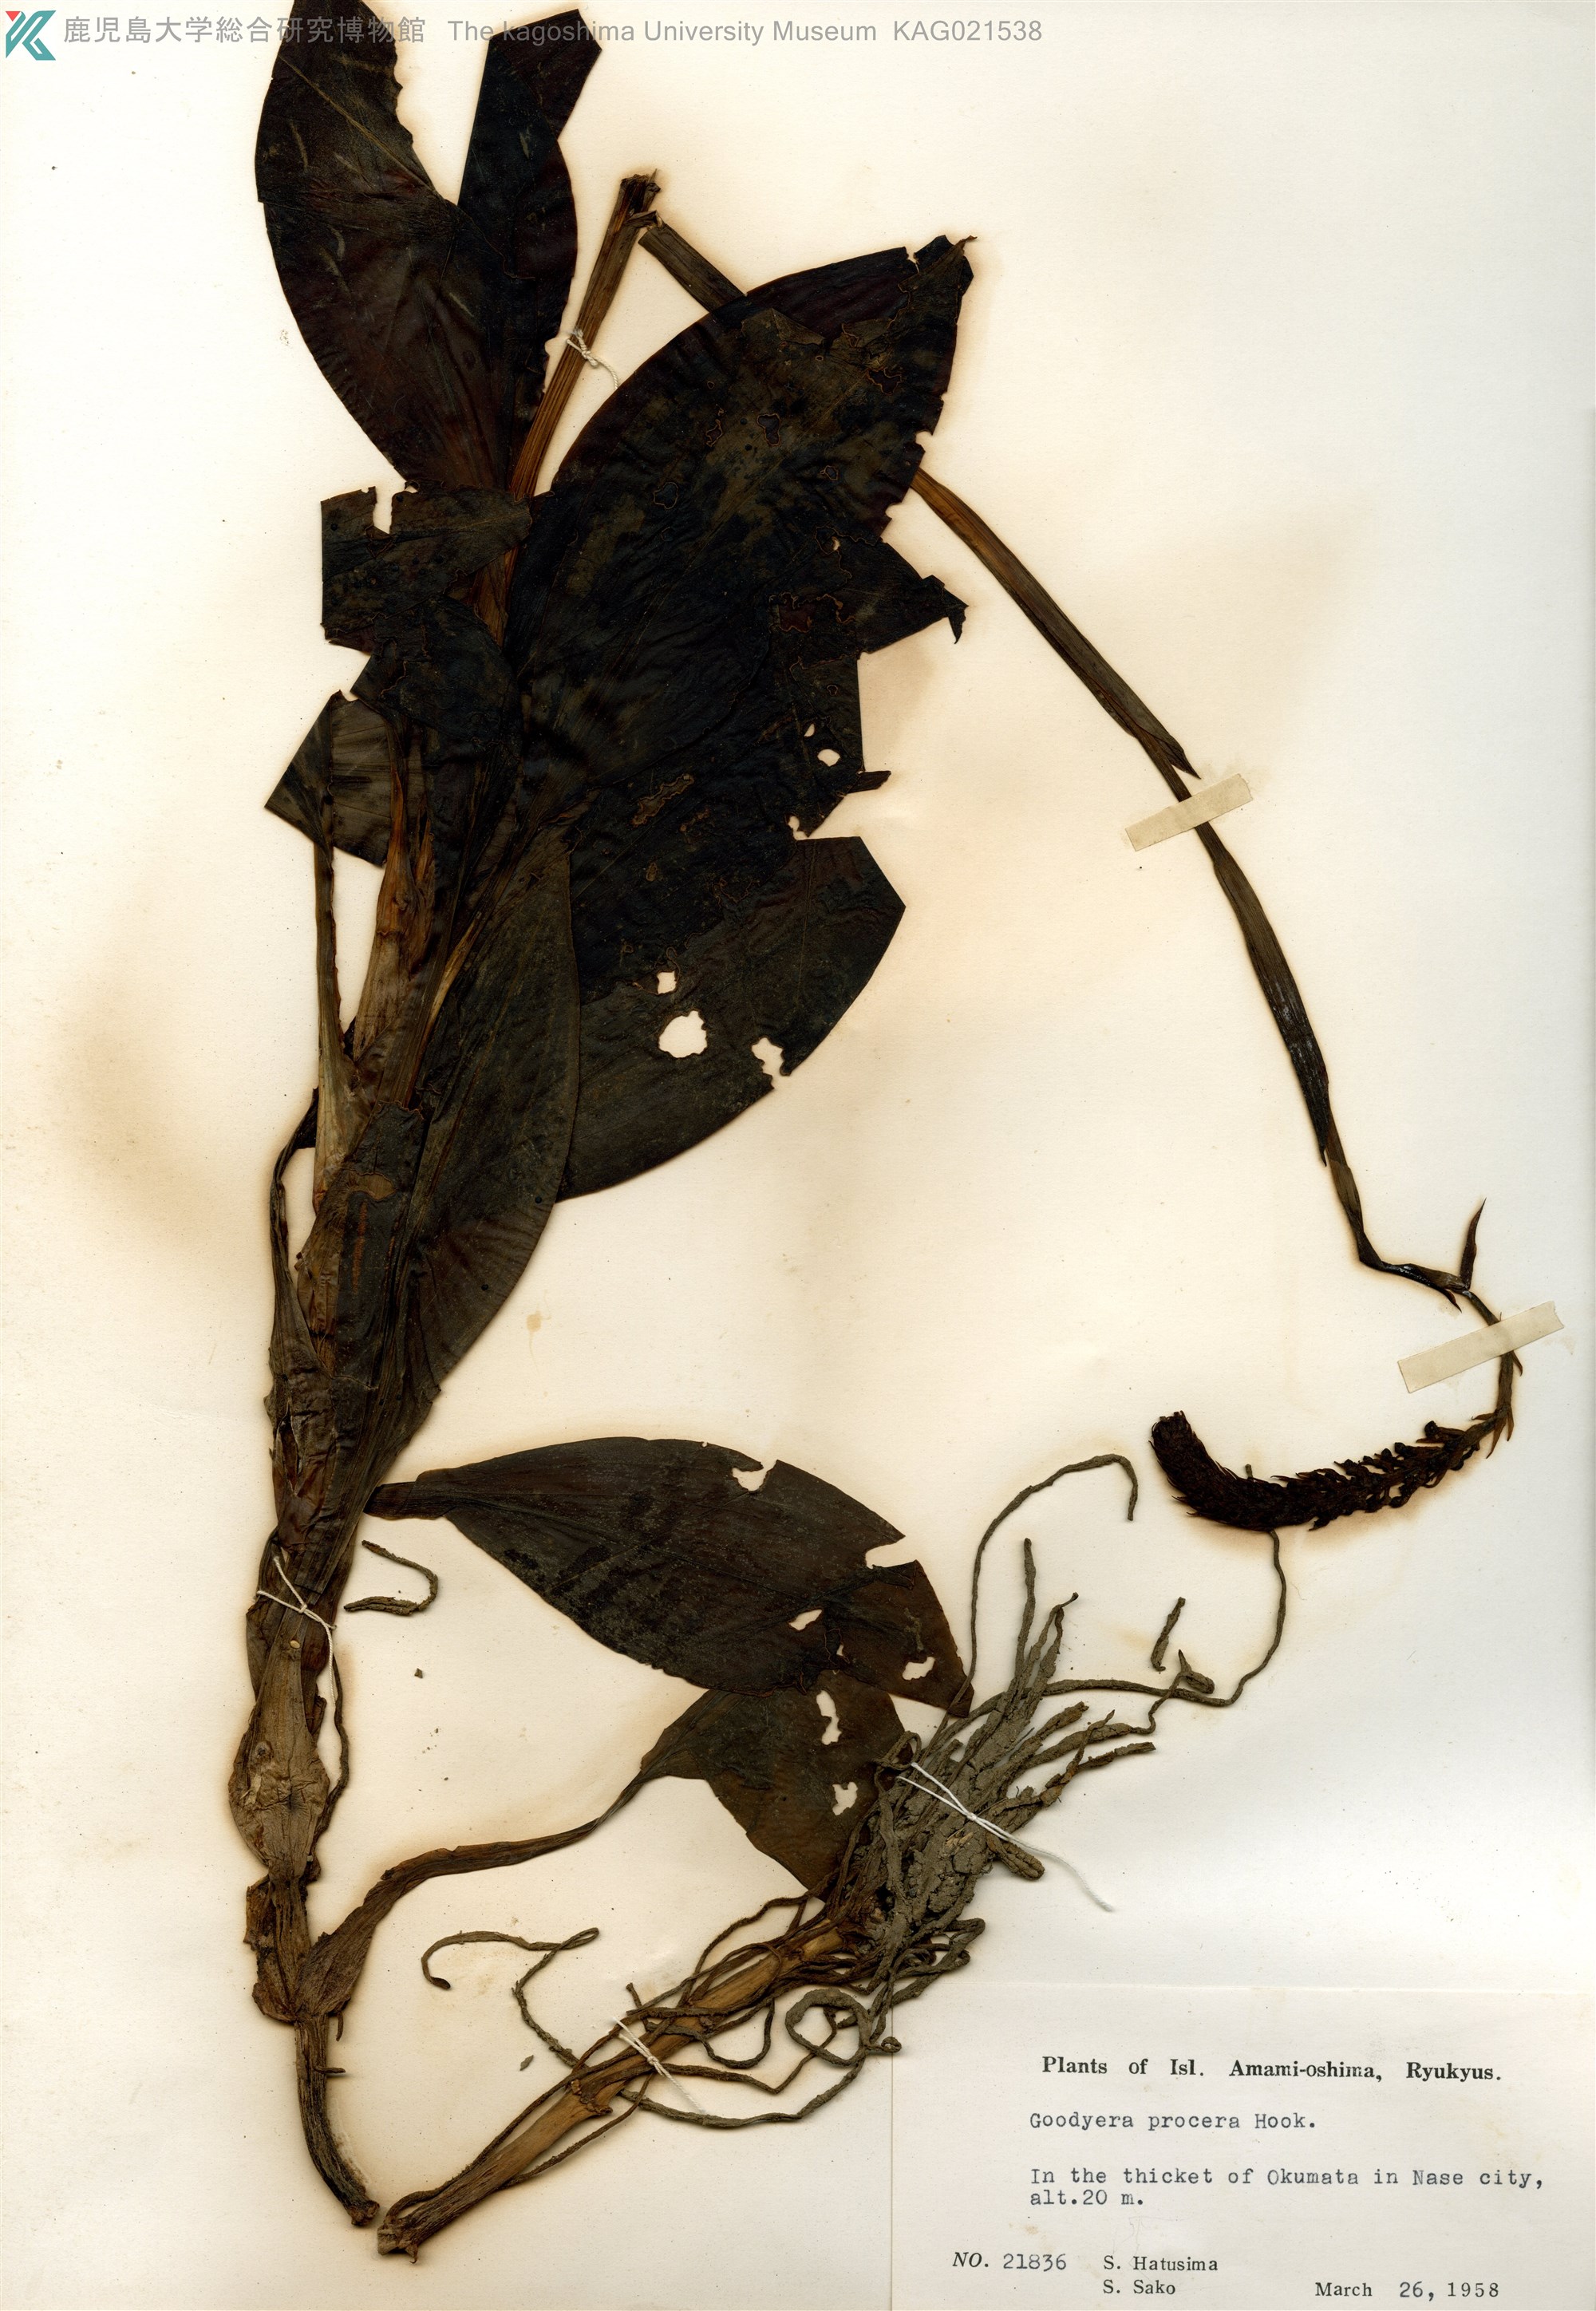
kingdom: Plantae
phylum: Tracheophyta
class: Liliopsida
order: Asparagales
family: Orchidaceae
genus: Goodyera
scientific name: Goodyera procera
